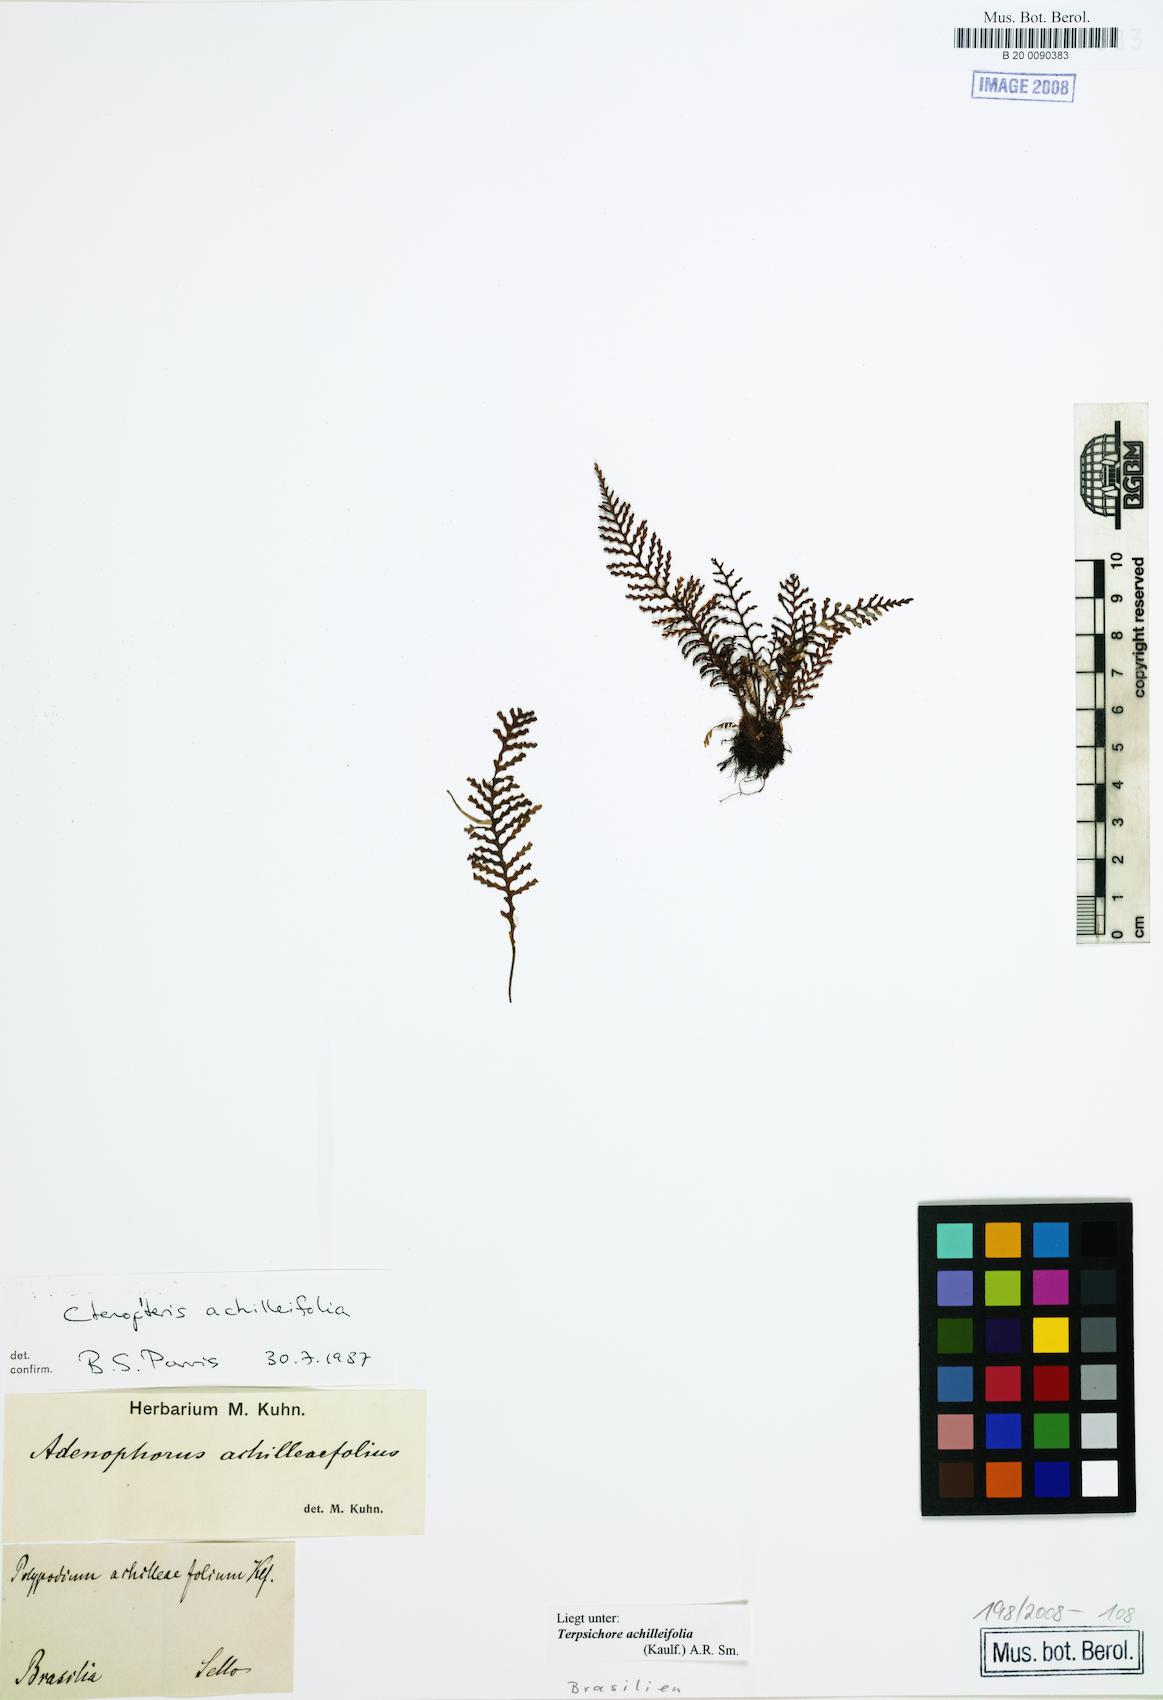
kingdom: Plantae
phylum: Tracheophyta
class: Polypodiopsida
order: Polypodiales
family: Polypodiaceae
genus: Moranopteris
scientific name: Moranopteris achilleifolia
